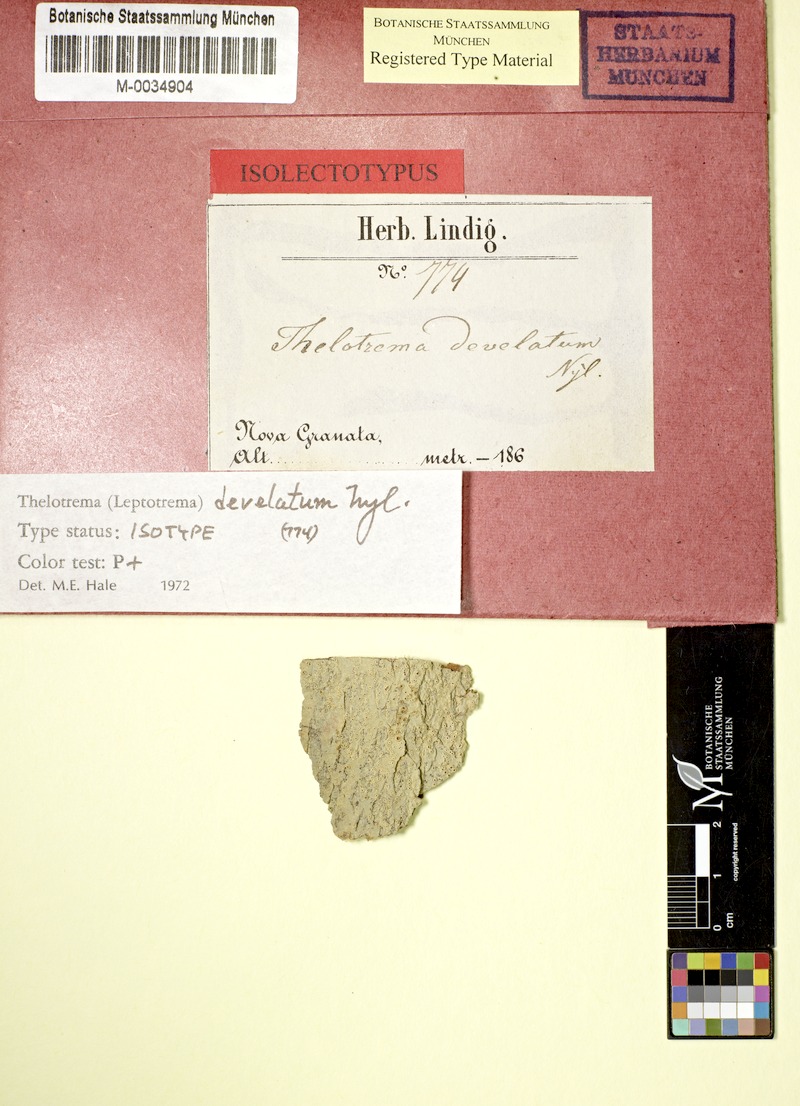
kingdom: Fungi
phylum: Ascomycota
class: Lecanoromycetes
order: Ostropales
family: Graphidaceae
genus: Ocellularia
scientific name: Ocellularia bahiana
